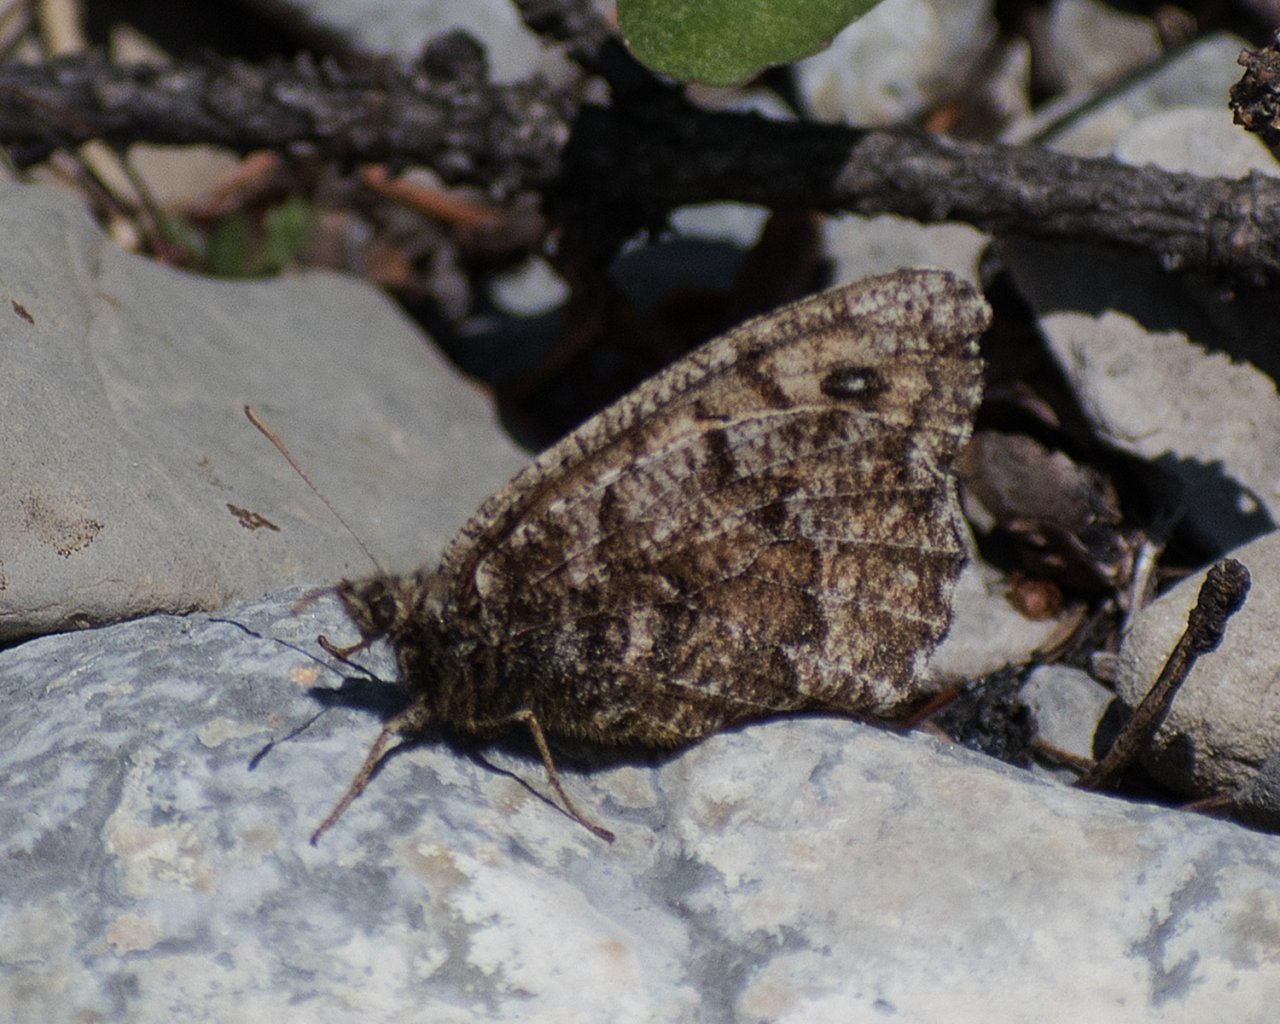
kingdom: Animalia
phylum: Arthropoda
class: Insecta
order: Lepidoptera
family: Nymphalidae
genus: Oeneis
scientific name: Oeneis chryxus
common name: Chryxus Arctic
